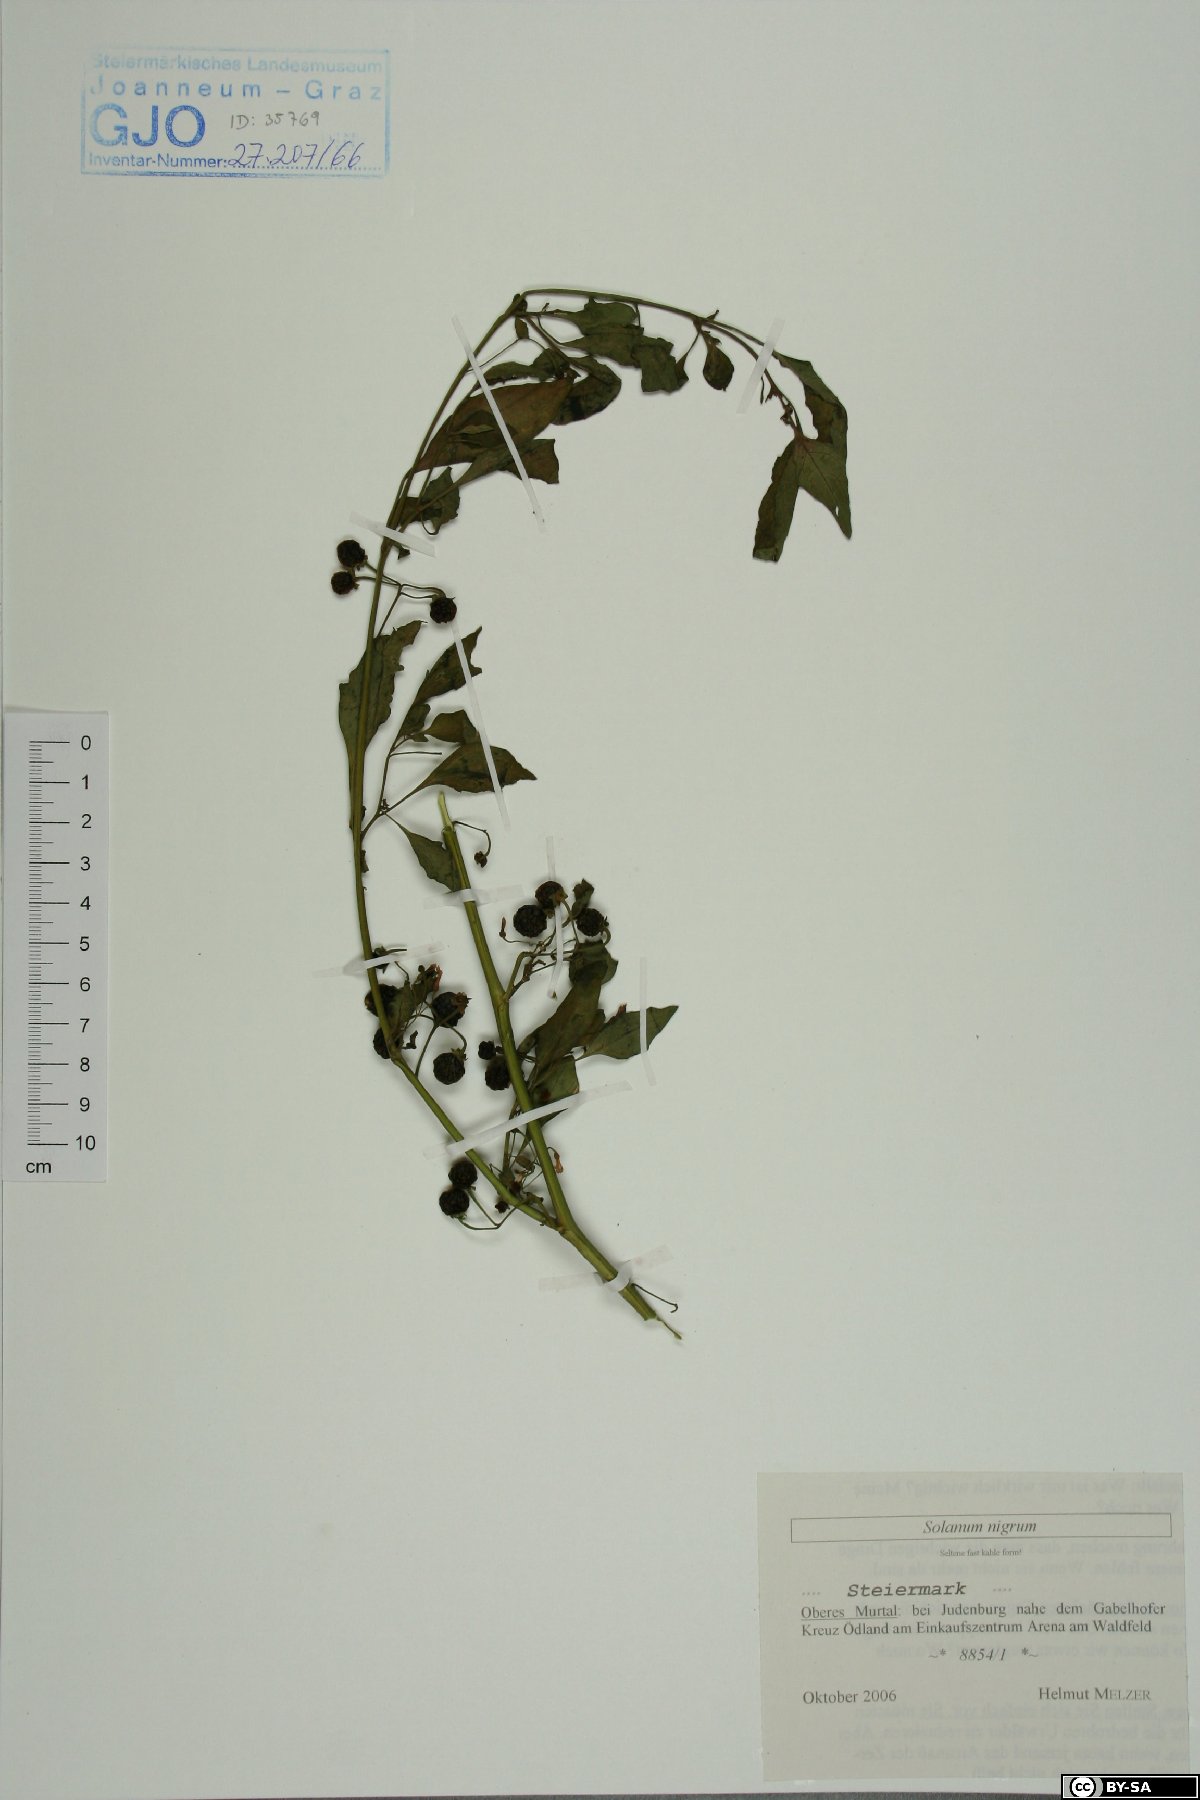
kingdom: Plantae
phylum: Tracheophyta
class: Magnoliopsida
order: Solanales
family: Solanaceae
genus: Solanum
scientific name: Solanum nigrum
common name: Black nightshade
